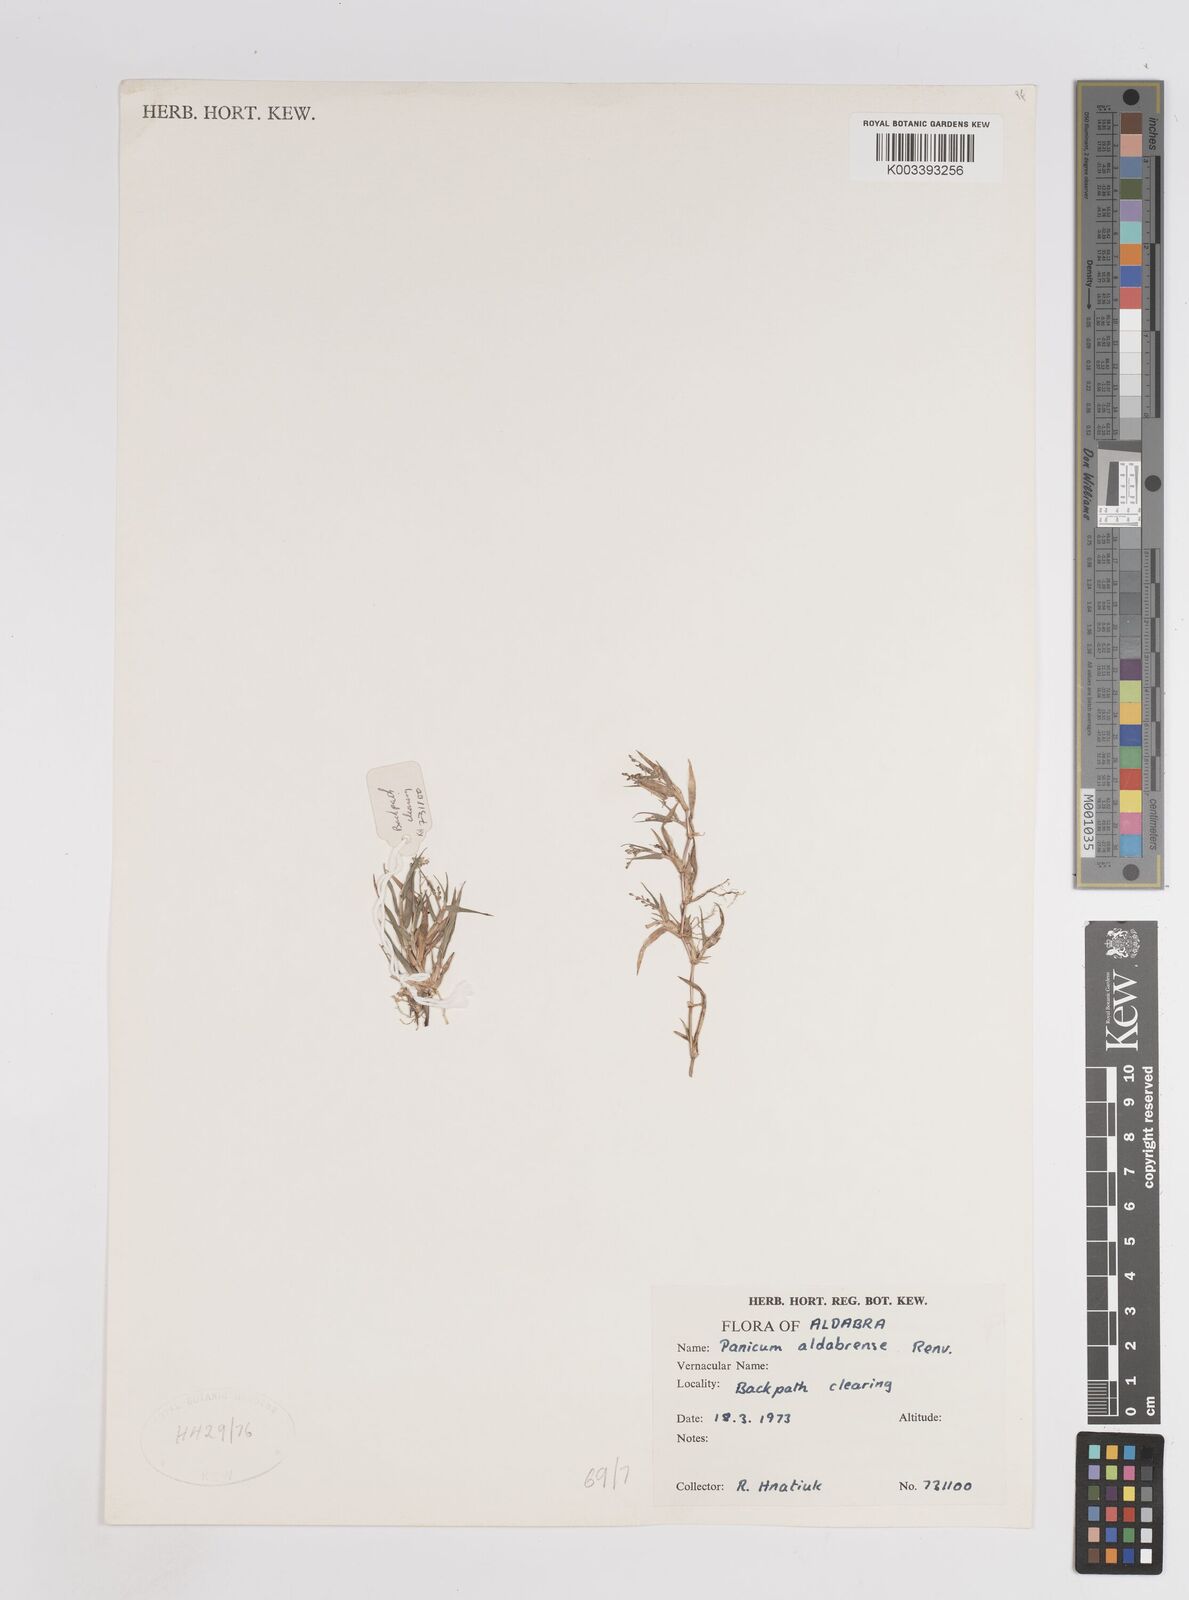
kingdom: Plantae
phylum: Tracheophyta
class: Liliopsida
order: Poales
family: Poaceae
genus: Panicum
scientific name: Panicum aldabrense
